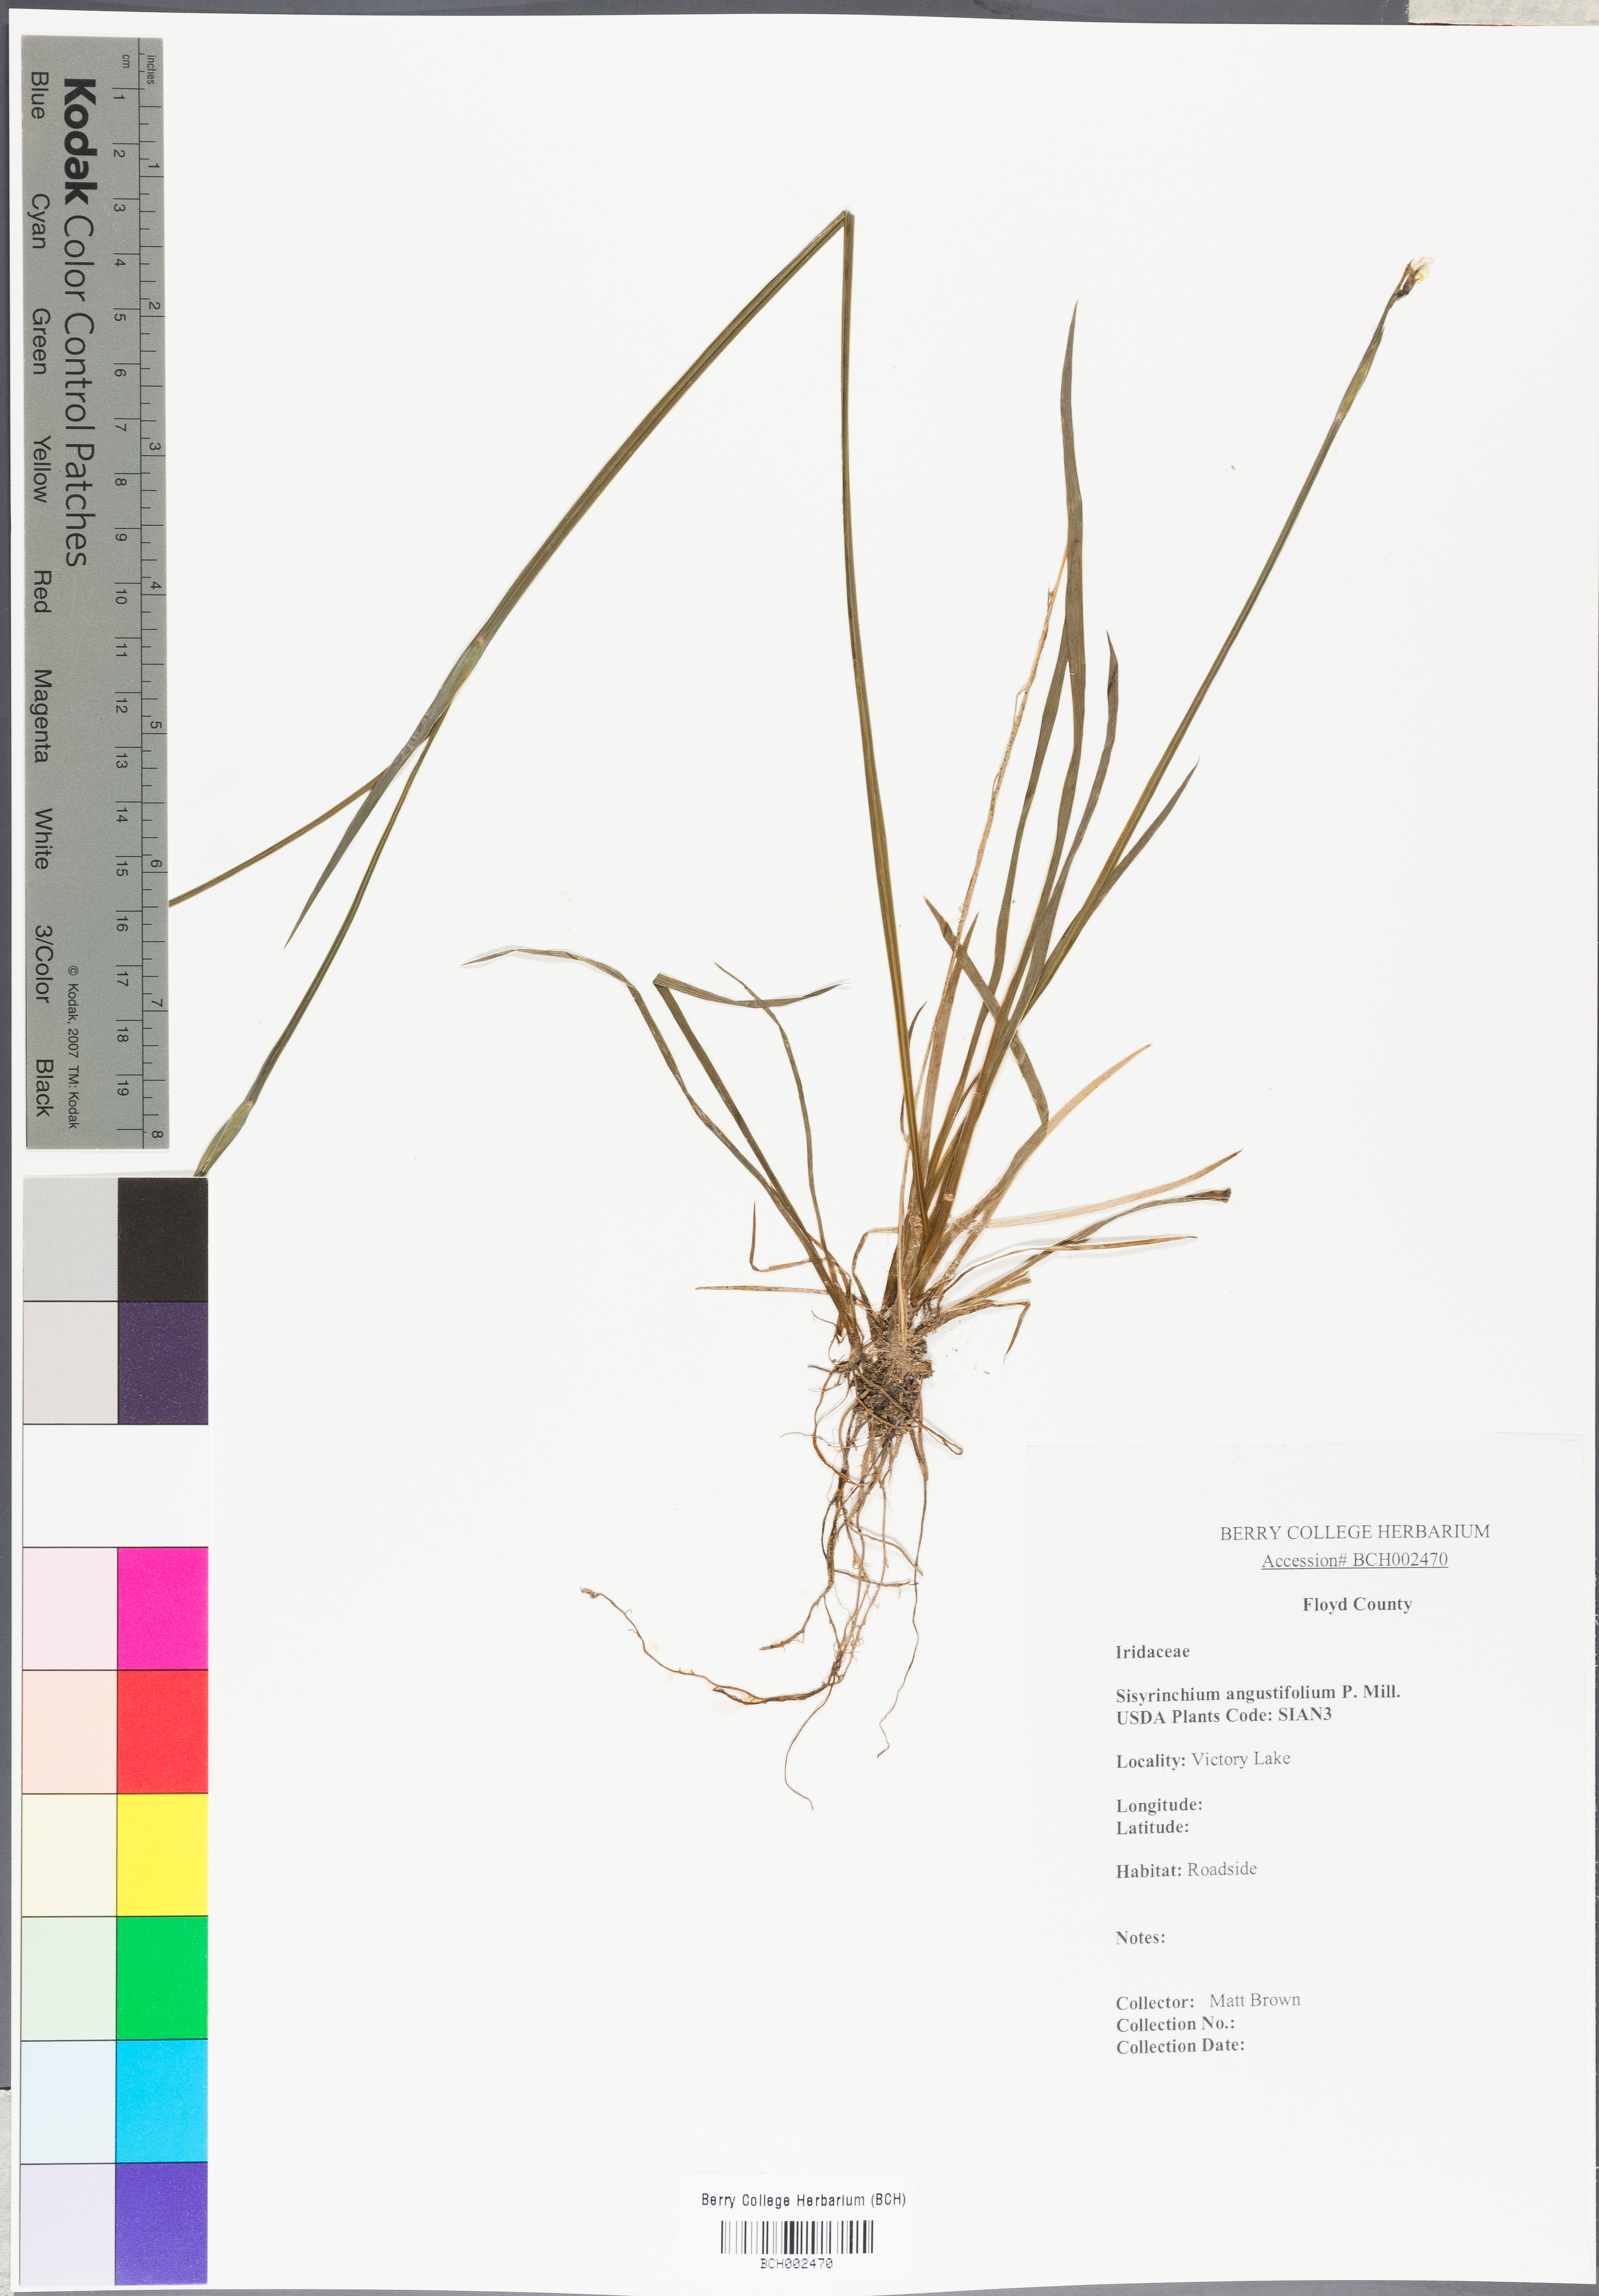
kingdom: Plantae
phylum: Tracheophyta
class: Liliopsida
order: Asparagales
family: Iridaceae
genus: Sisyrinchium
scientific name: Sisyrinchium angustifolium
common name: Narrow-leaf blue-eyed-grass
